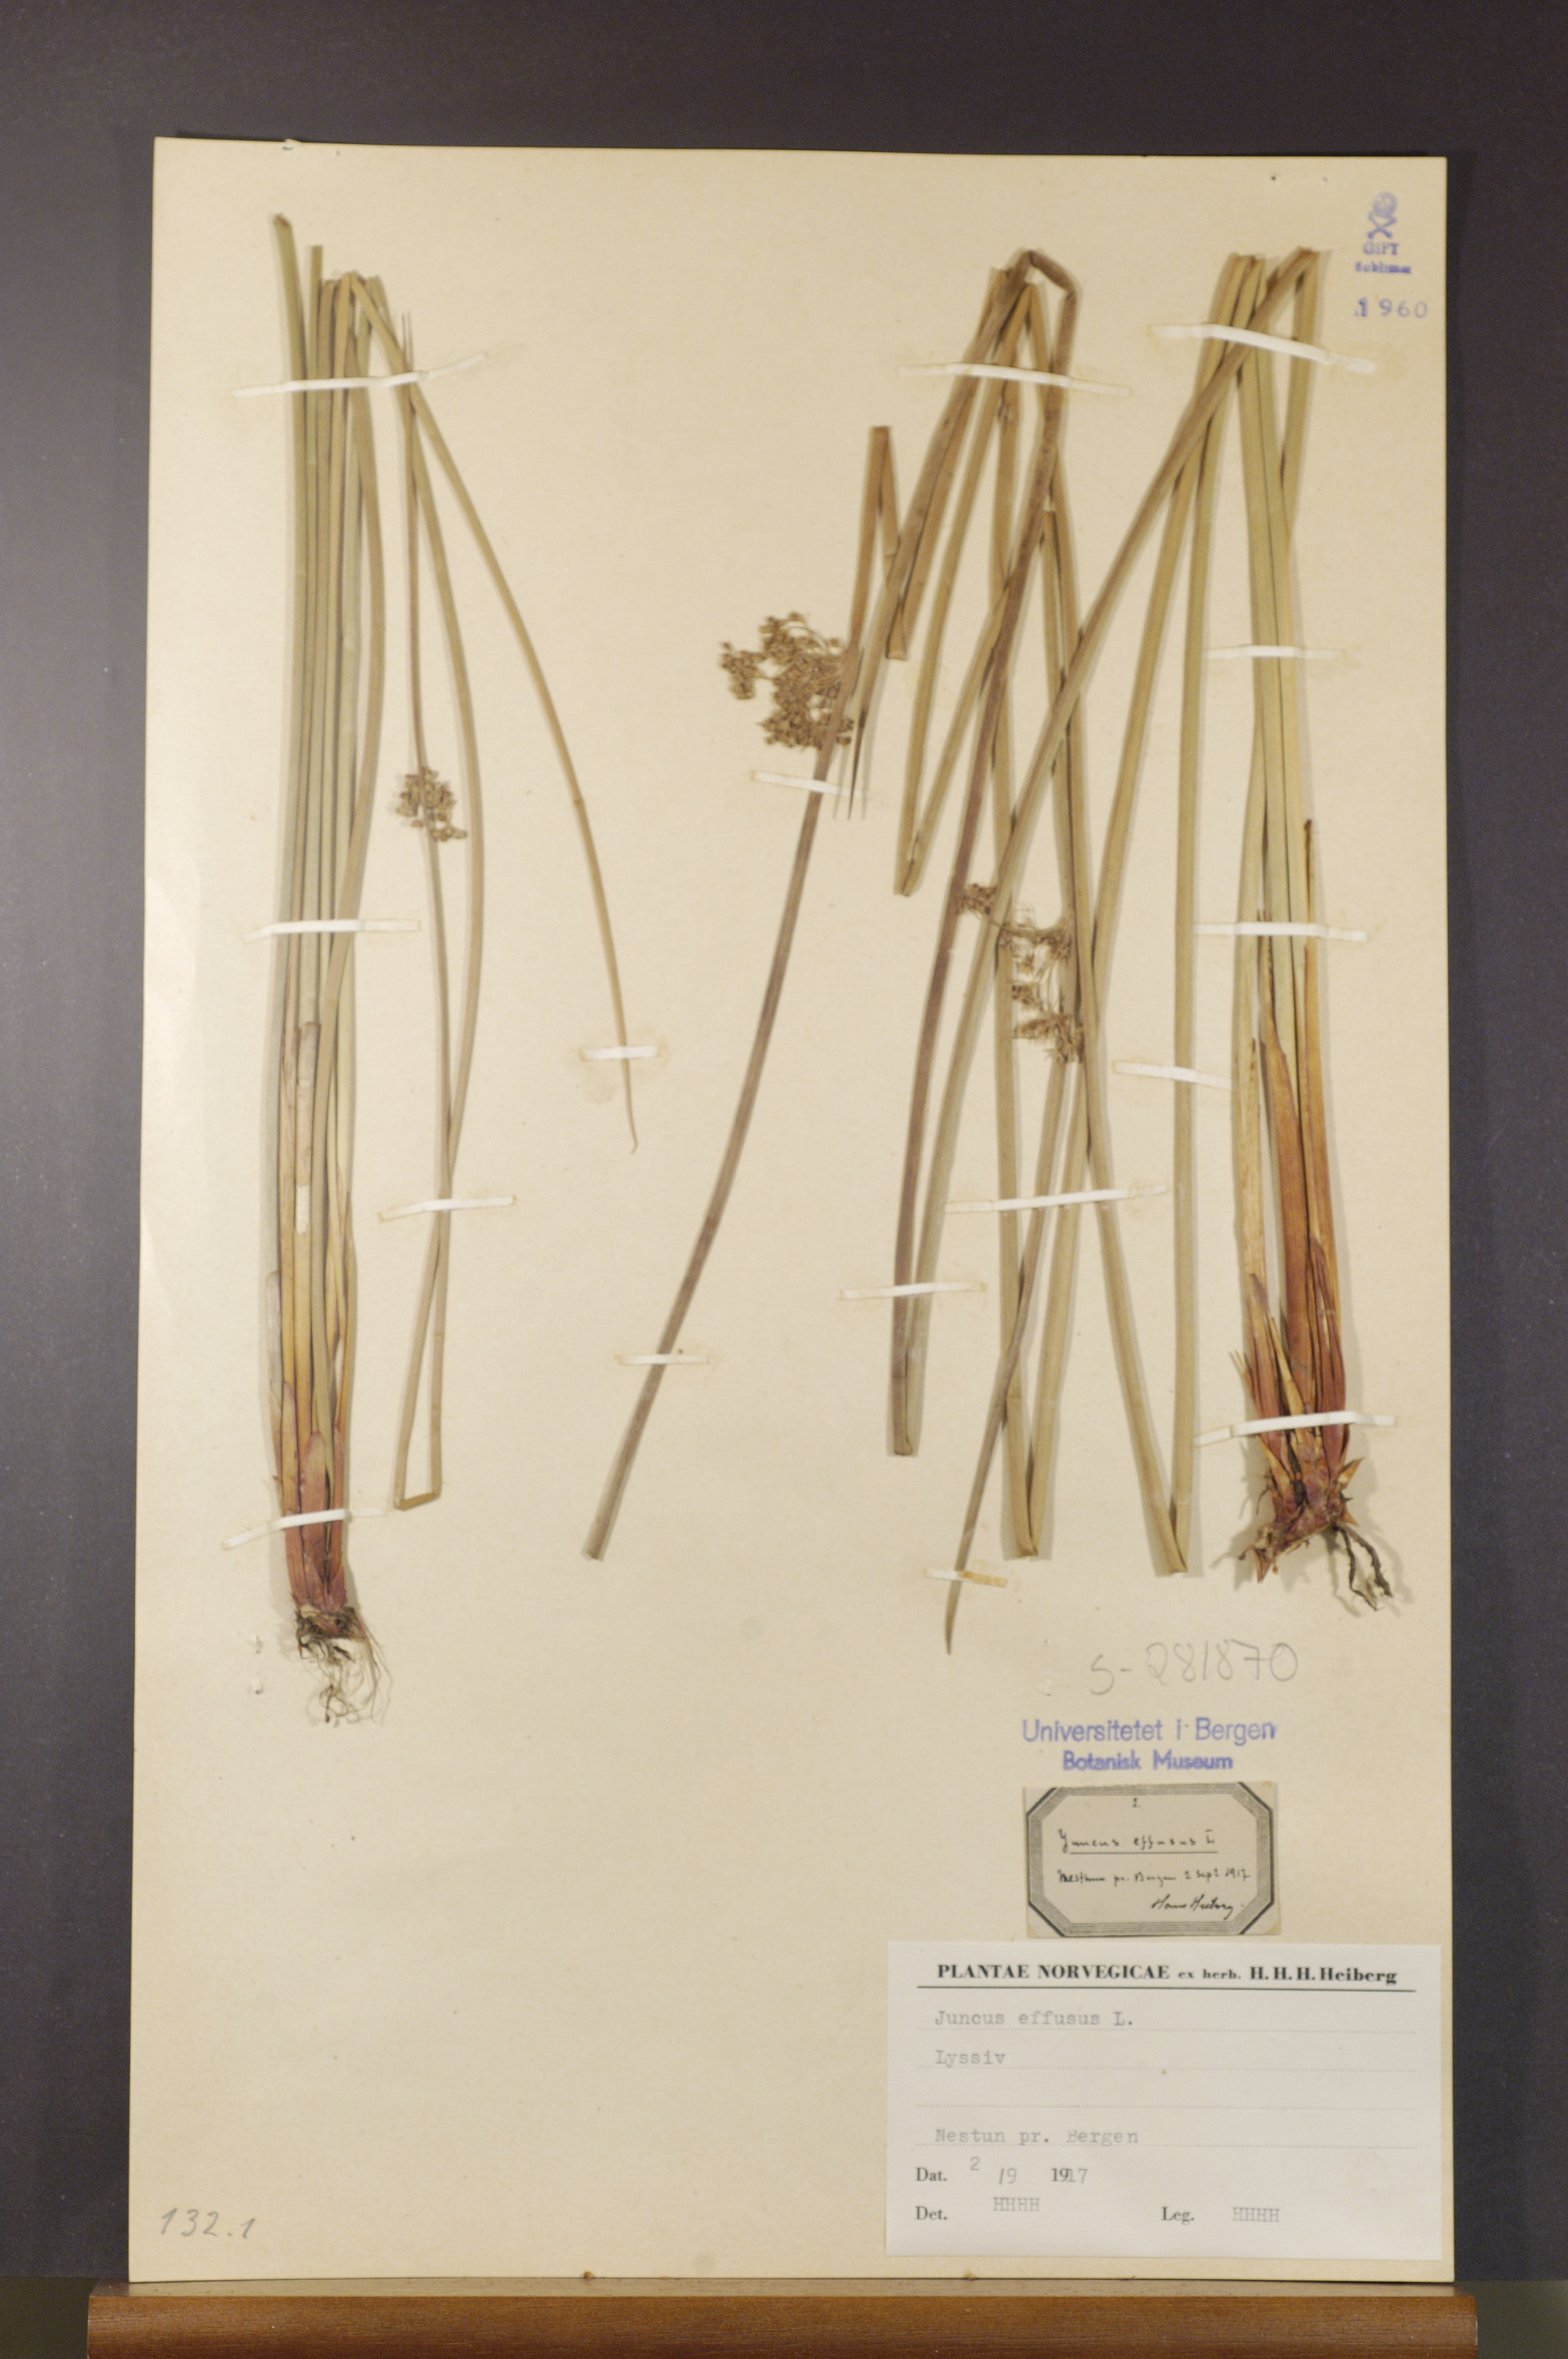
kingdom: Plantae
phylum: Tracheophyta
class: Liliopsida
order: Poales
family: Juncaceae
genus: Juncus
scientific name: Juncus effusus
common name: Soft rush
